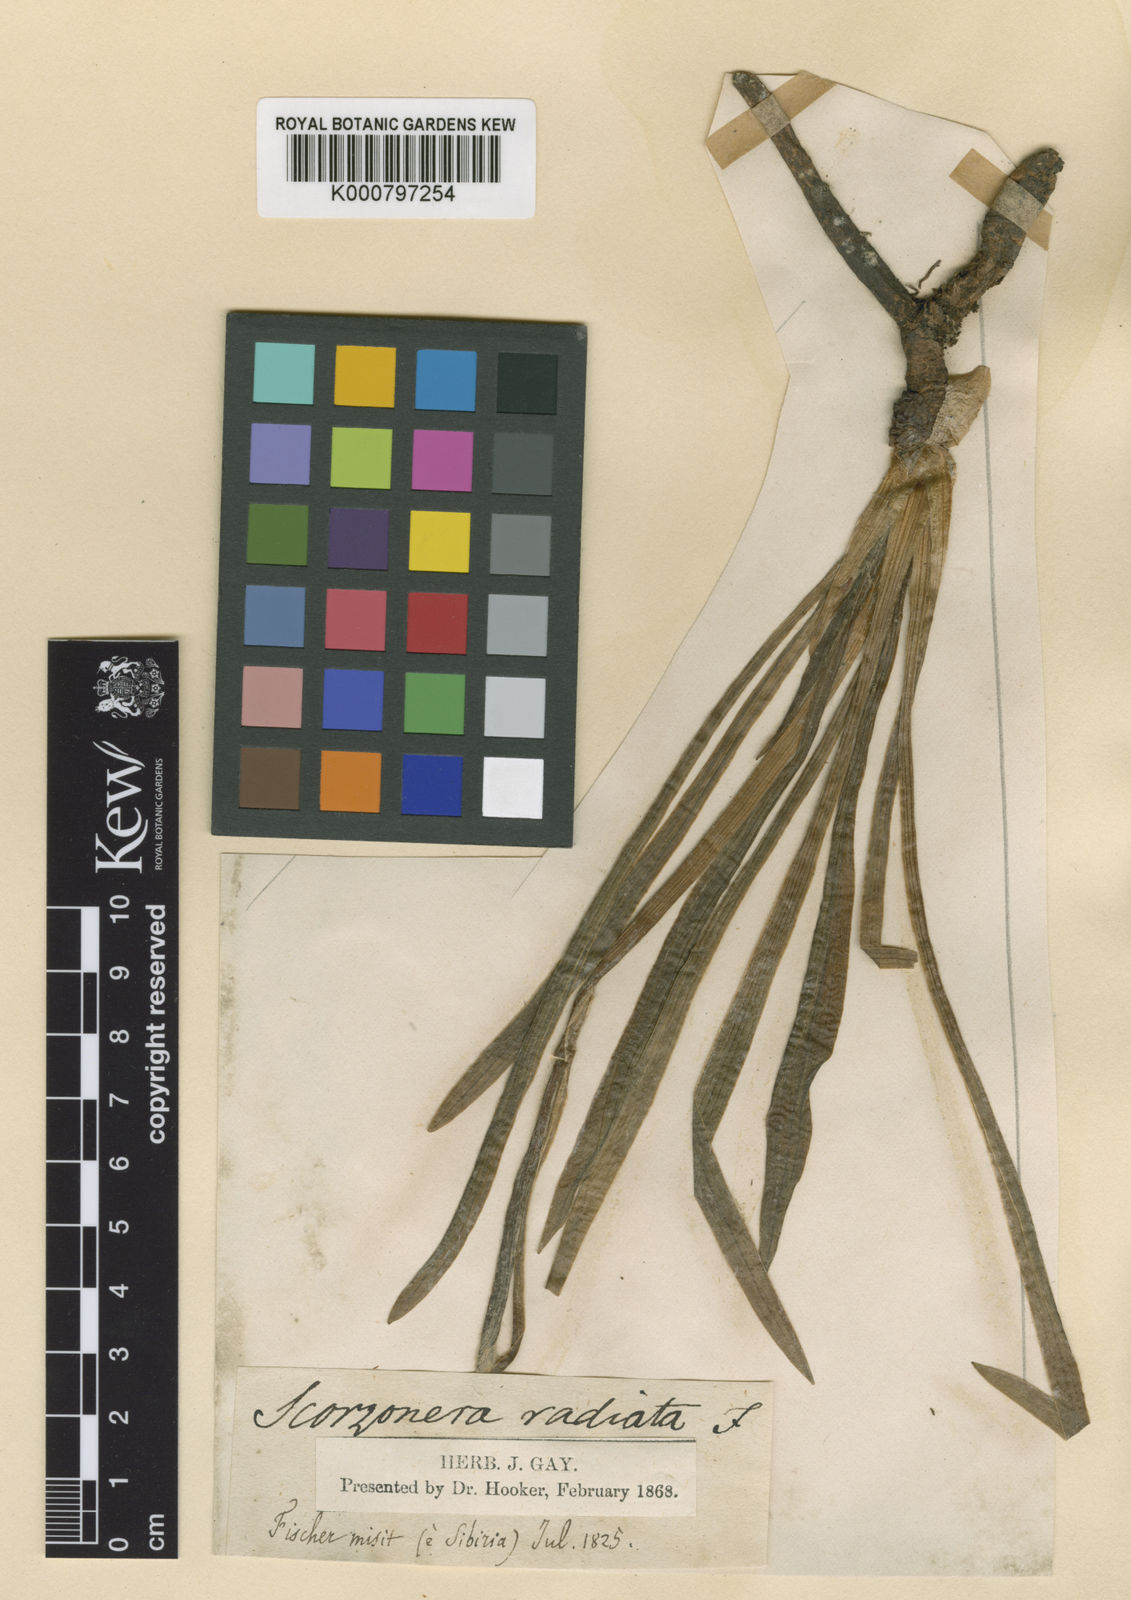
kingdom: Plantae
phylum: Tracheophyta
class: Magnoliopsida
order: Asterales
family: Asteraceae
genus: Scorzonera
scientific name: Scorzonera
